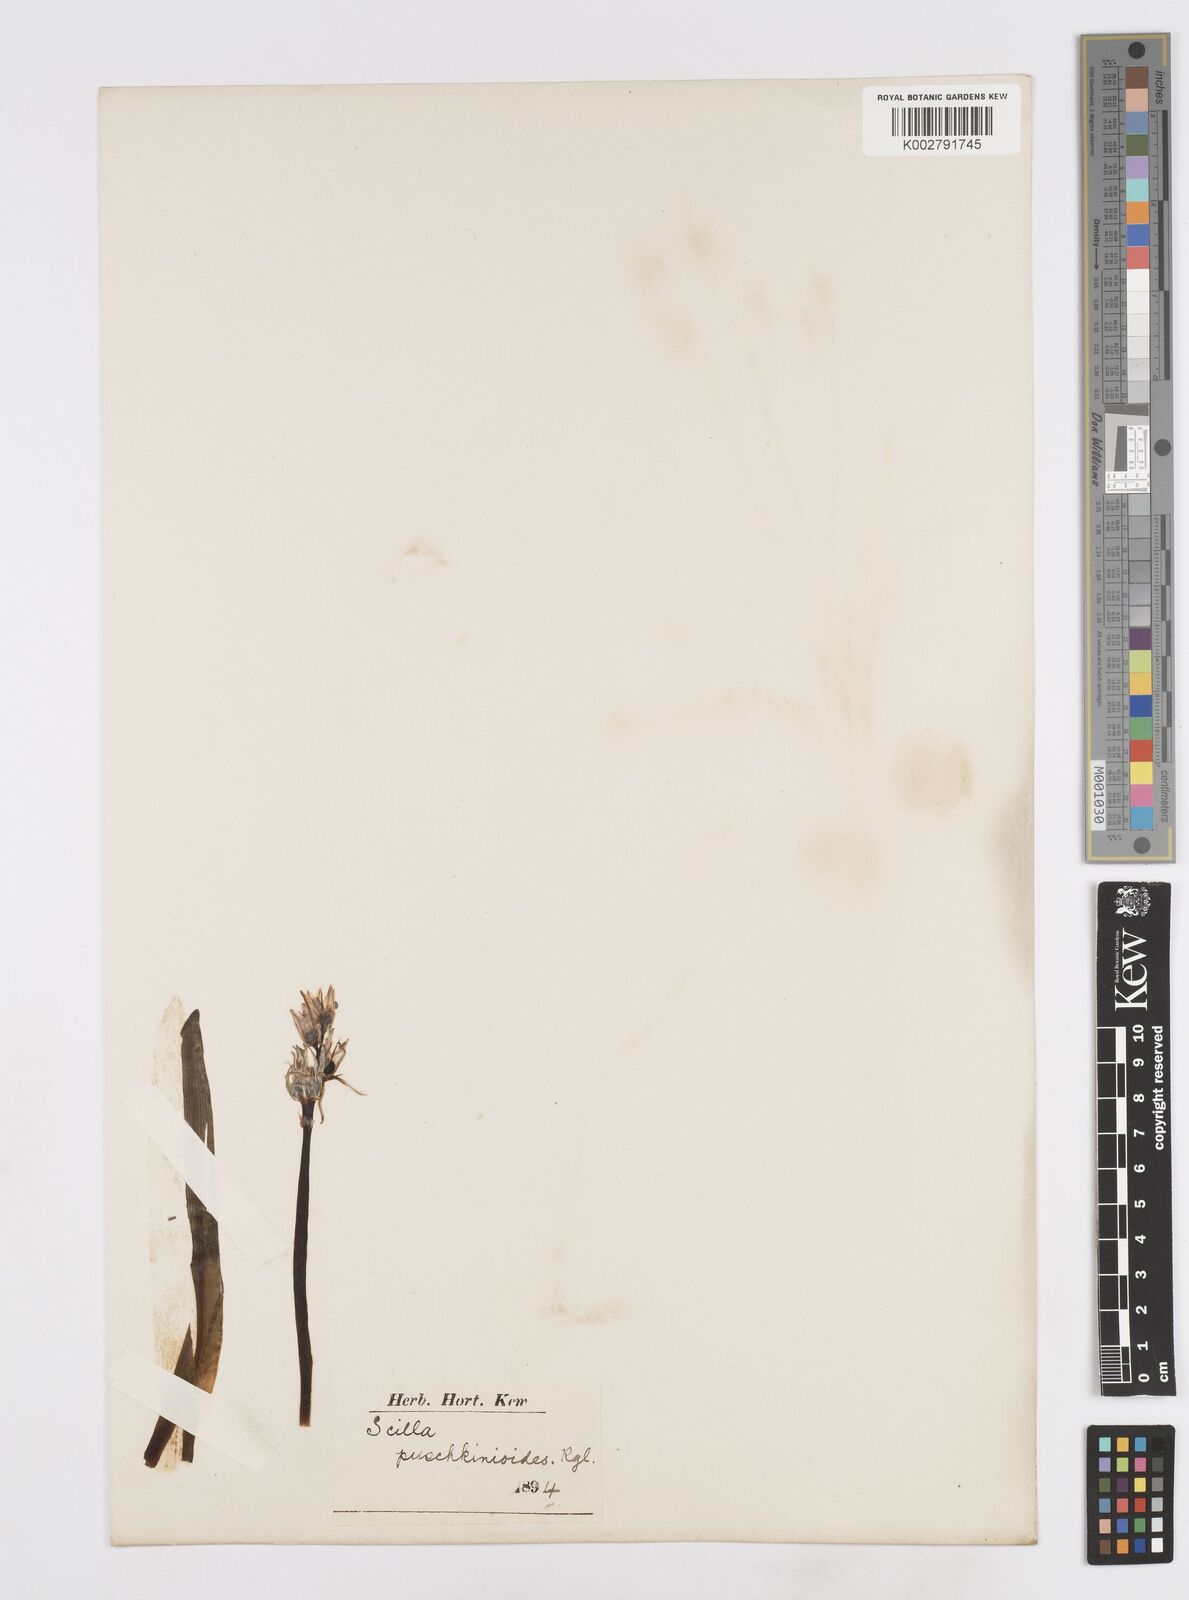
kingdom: Plantae
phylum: Tracheophyta
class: Liliopsida
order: Asparagales
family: Asparagaceae
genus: Fessia
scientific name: Fessia puschkinioides
